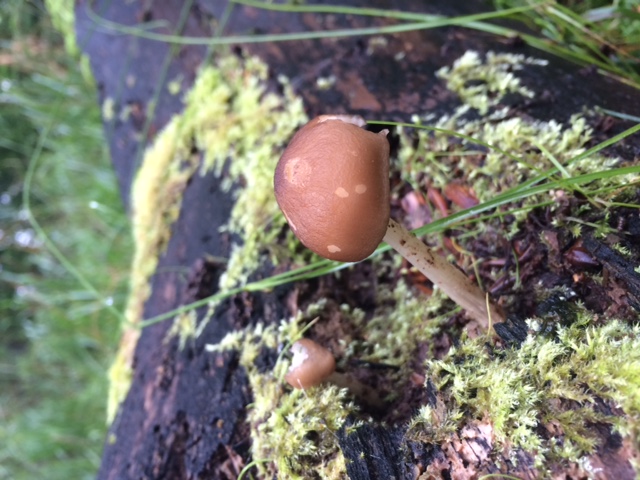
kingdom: Fungi
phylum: Basidiomycota
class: Agaricomycetes
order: Agaricales
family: Pluteaceae
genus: Pluteus
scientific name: Pluteus phlebophorus
